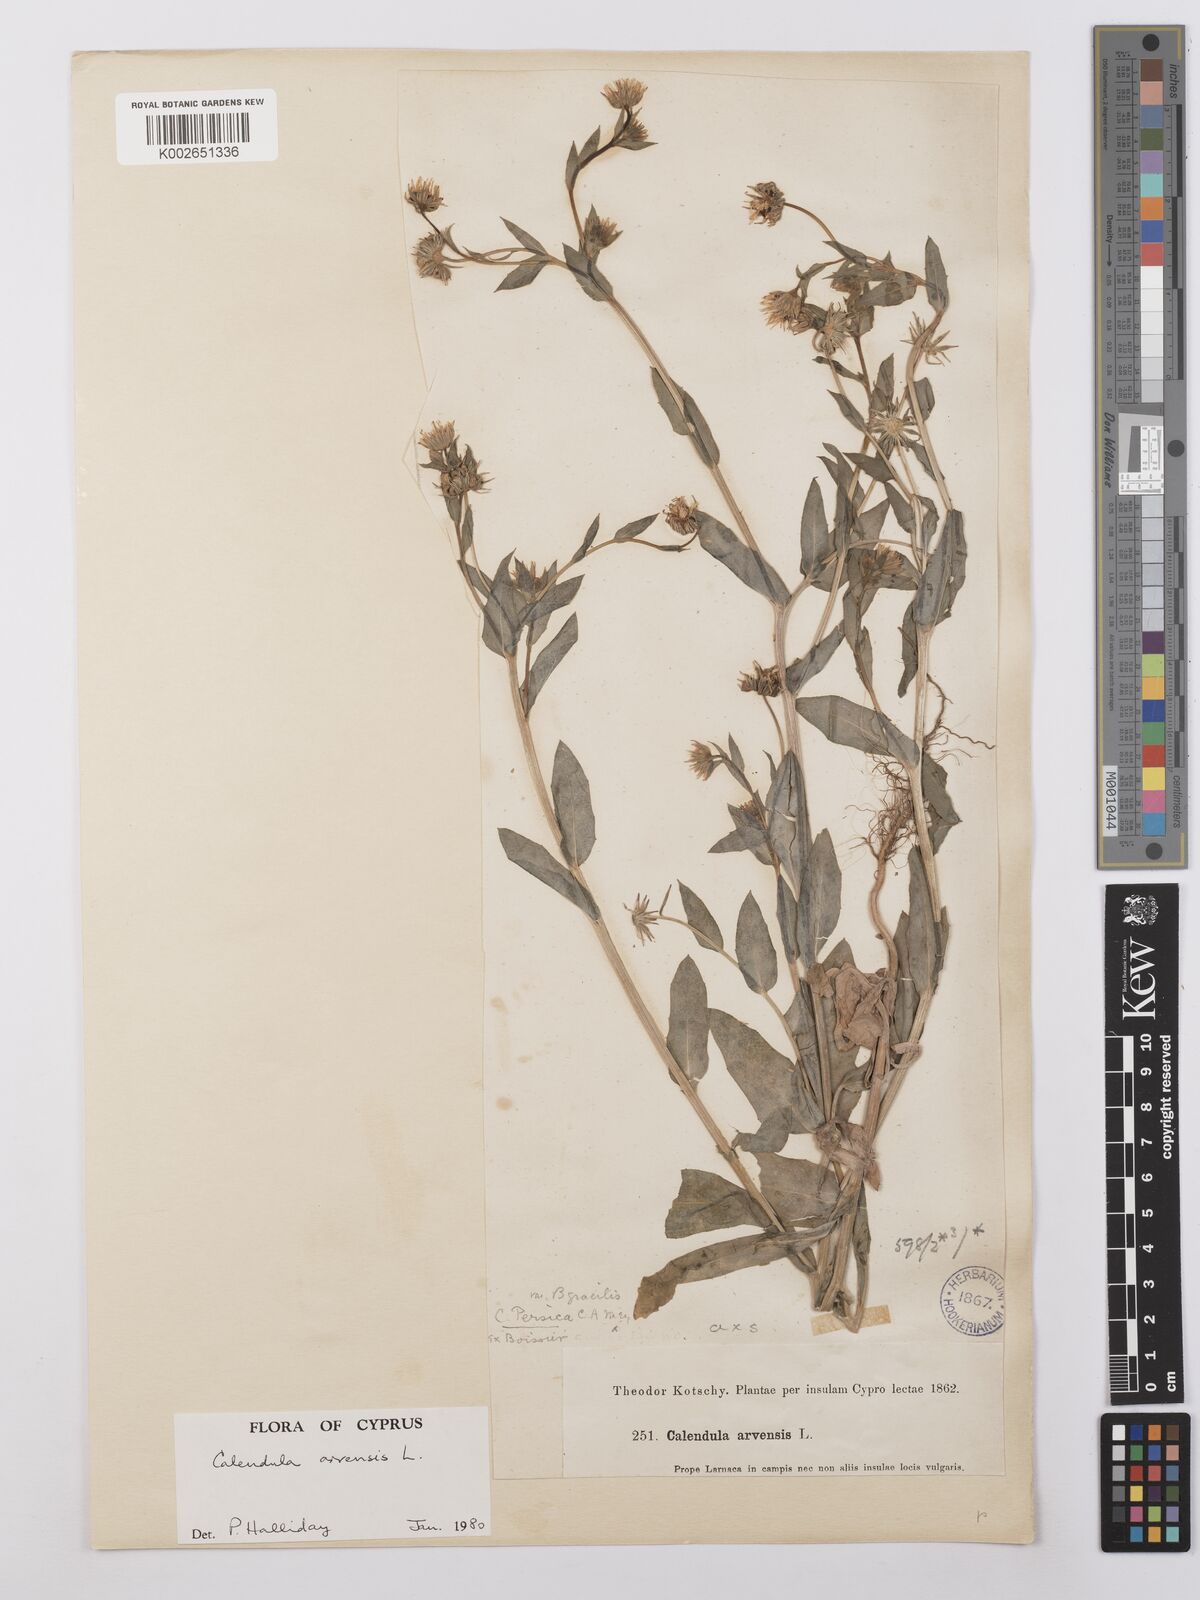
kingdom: Plantae
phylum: Tracheophyta
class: Magnoliopsida
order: Asterales
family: Asteraceae
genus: Calendula
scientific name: Calendula arvensis
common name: Field marigold
